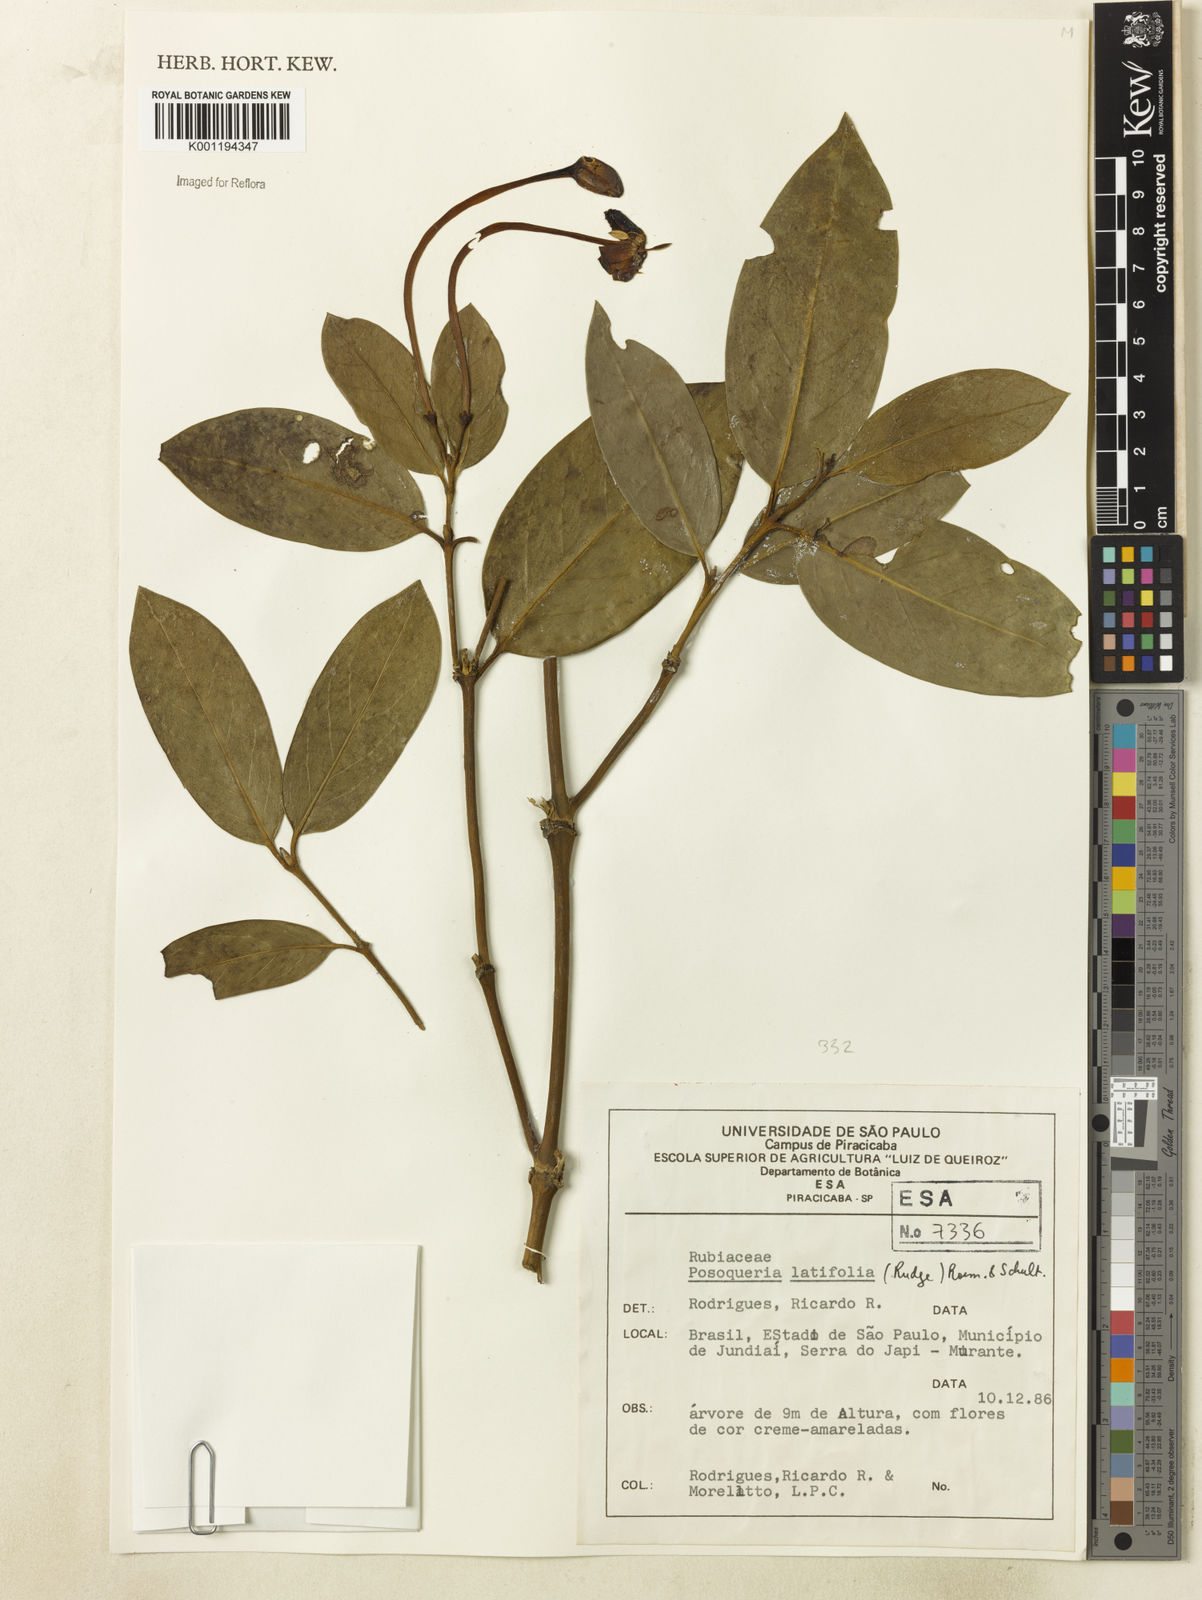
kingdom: Plantae
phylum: Tracheophyta
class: Magnoliopsida
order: Gentianales
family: Rubiaceae
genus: Posoqueria
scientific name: Posoqueria latifolia
